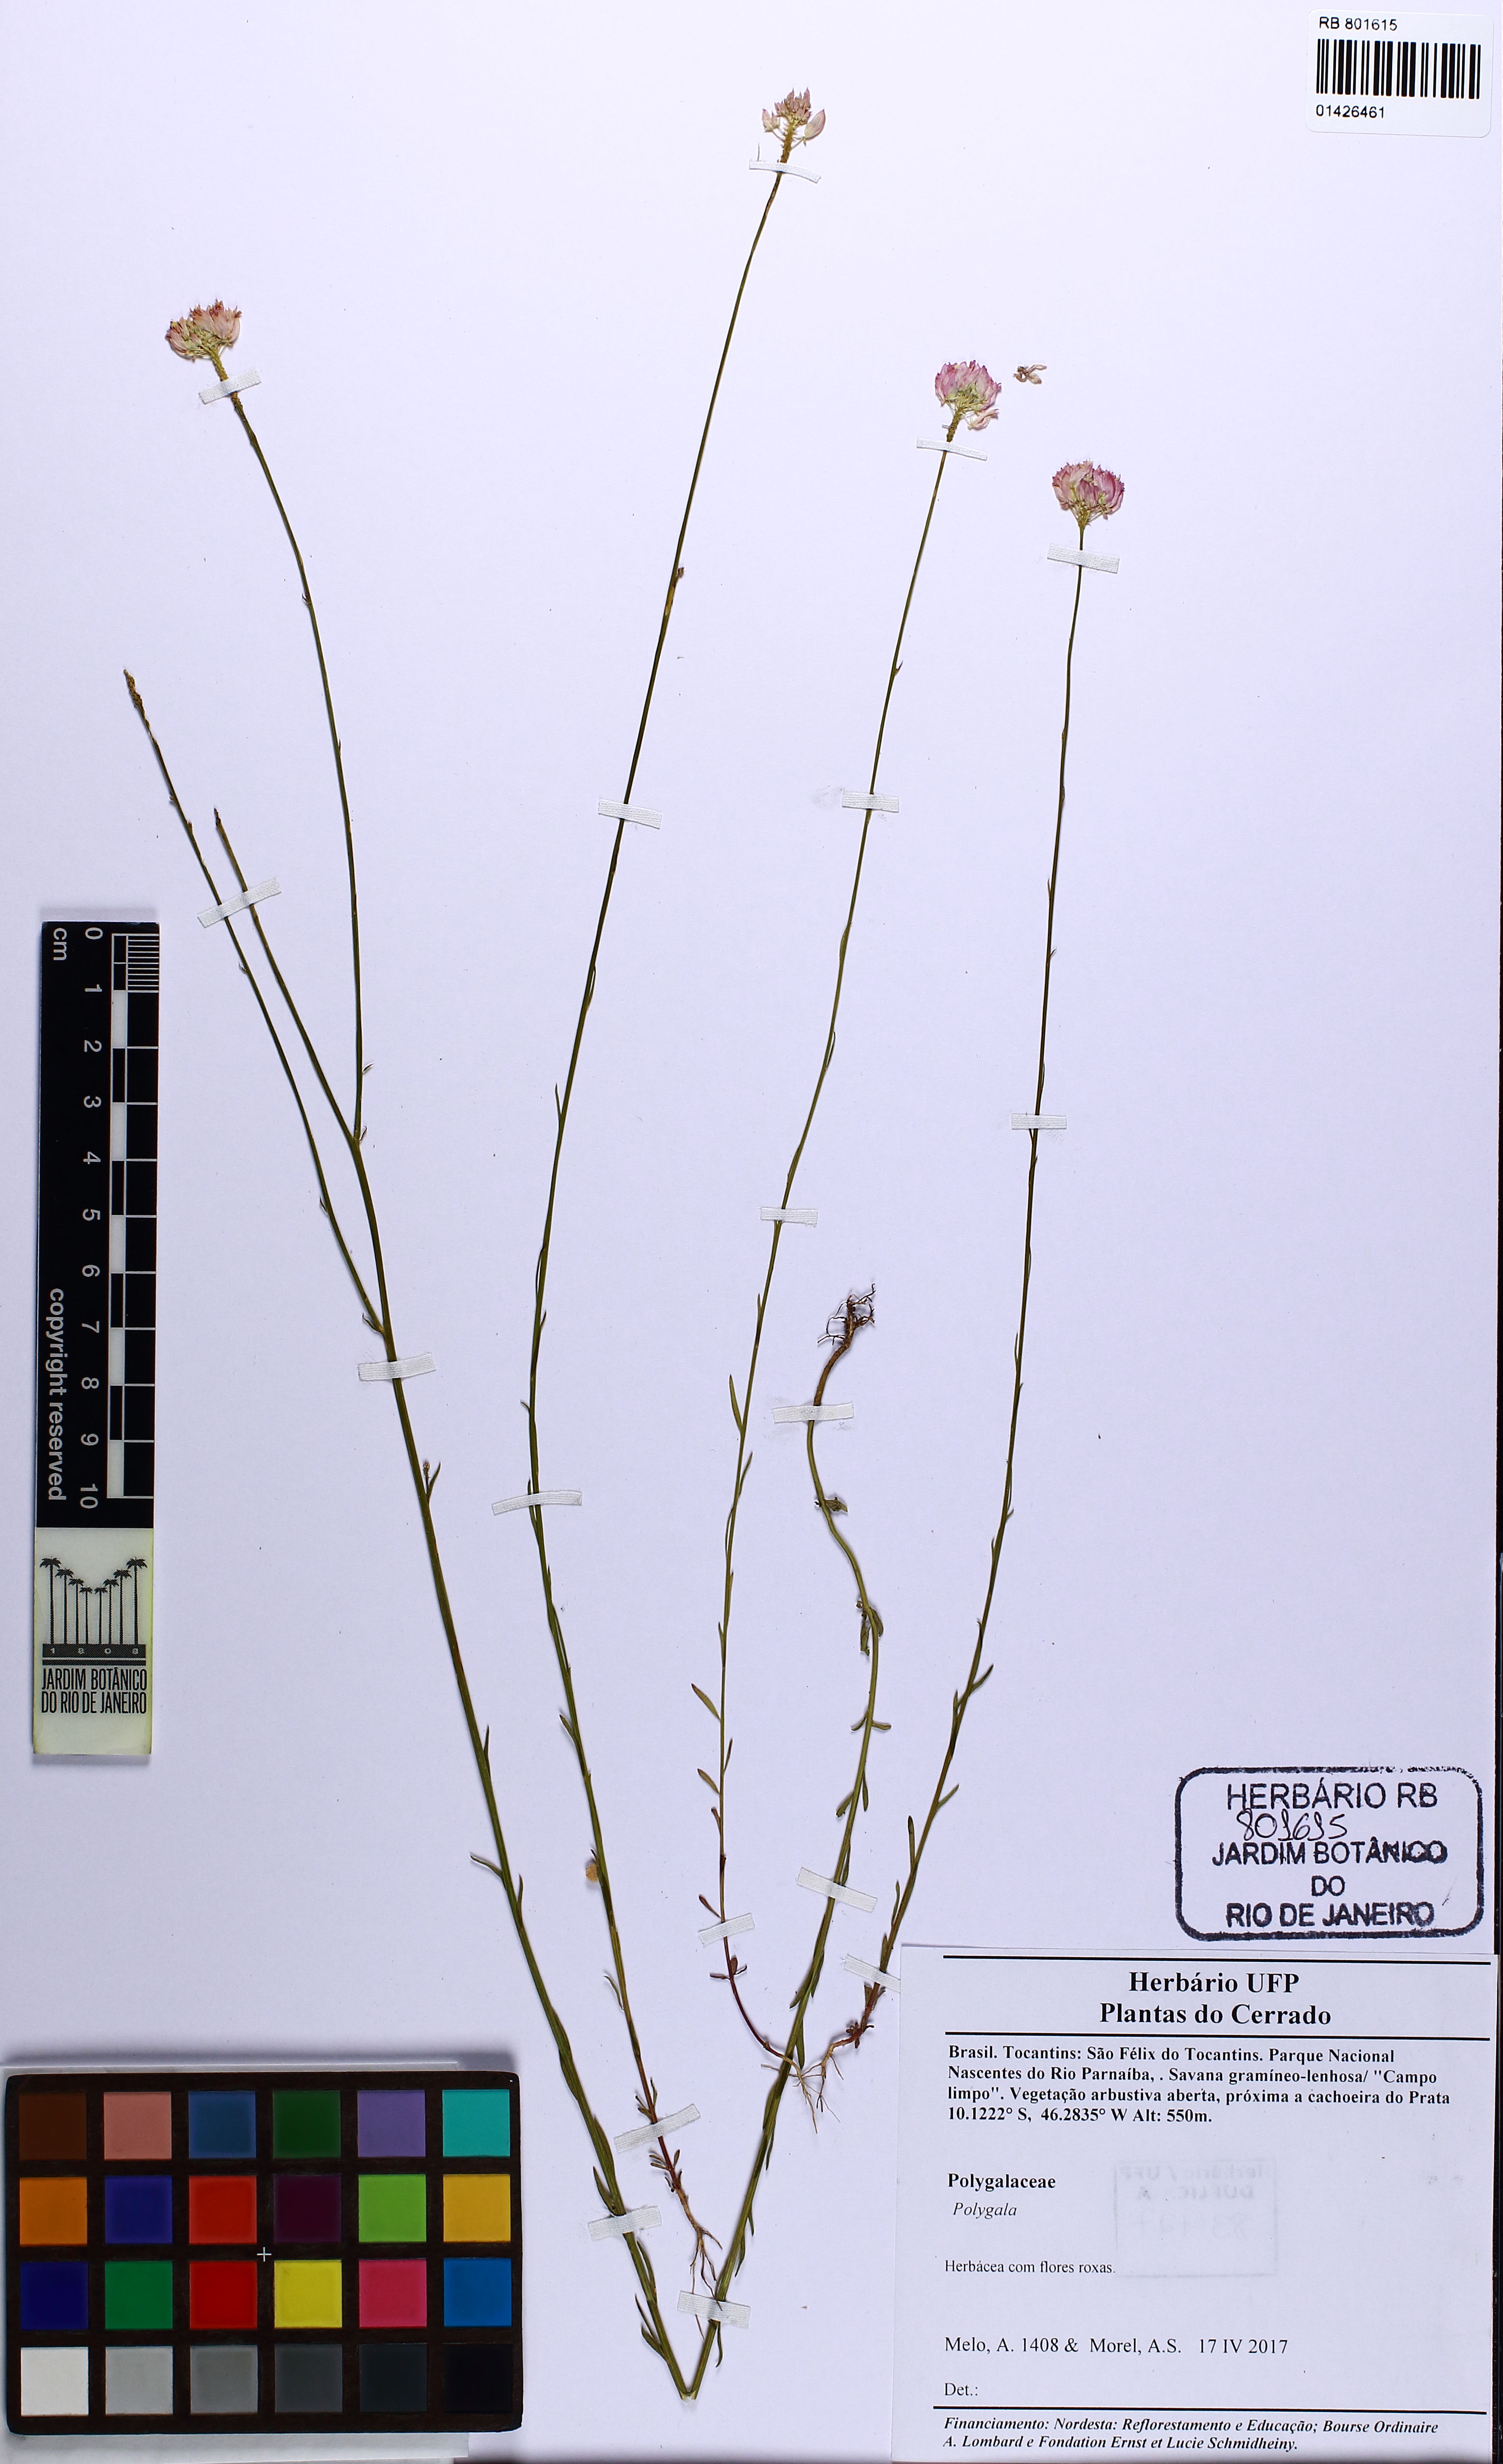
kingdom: Plantae
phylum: Tracheophyta
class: Magnoliopsida
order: Fabales
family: Polygalaceae
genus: Polygala
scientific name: Polygala
